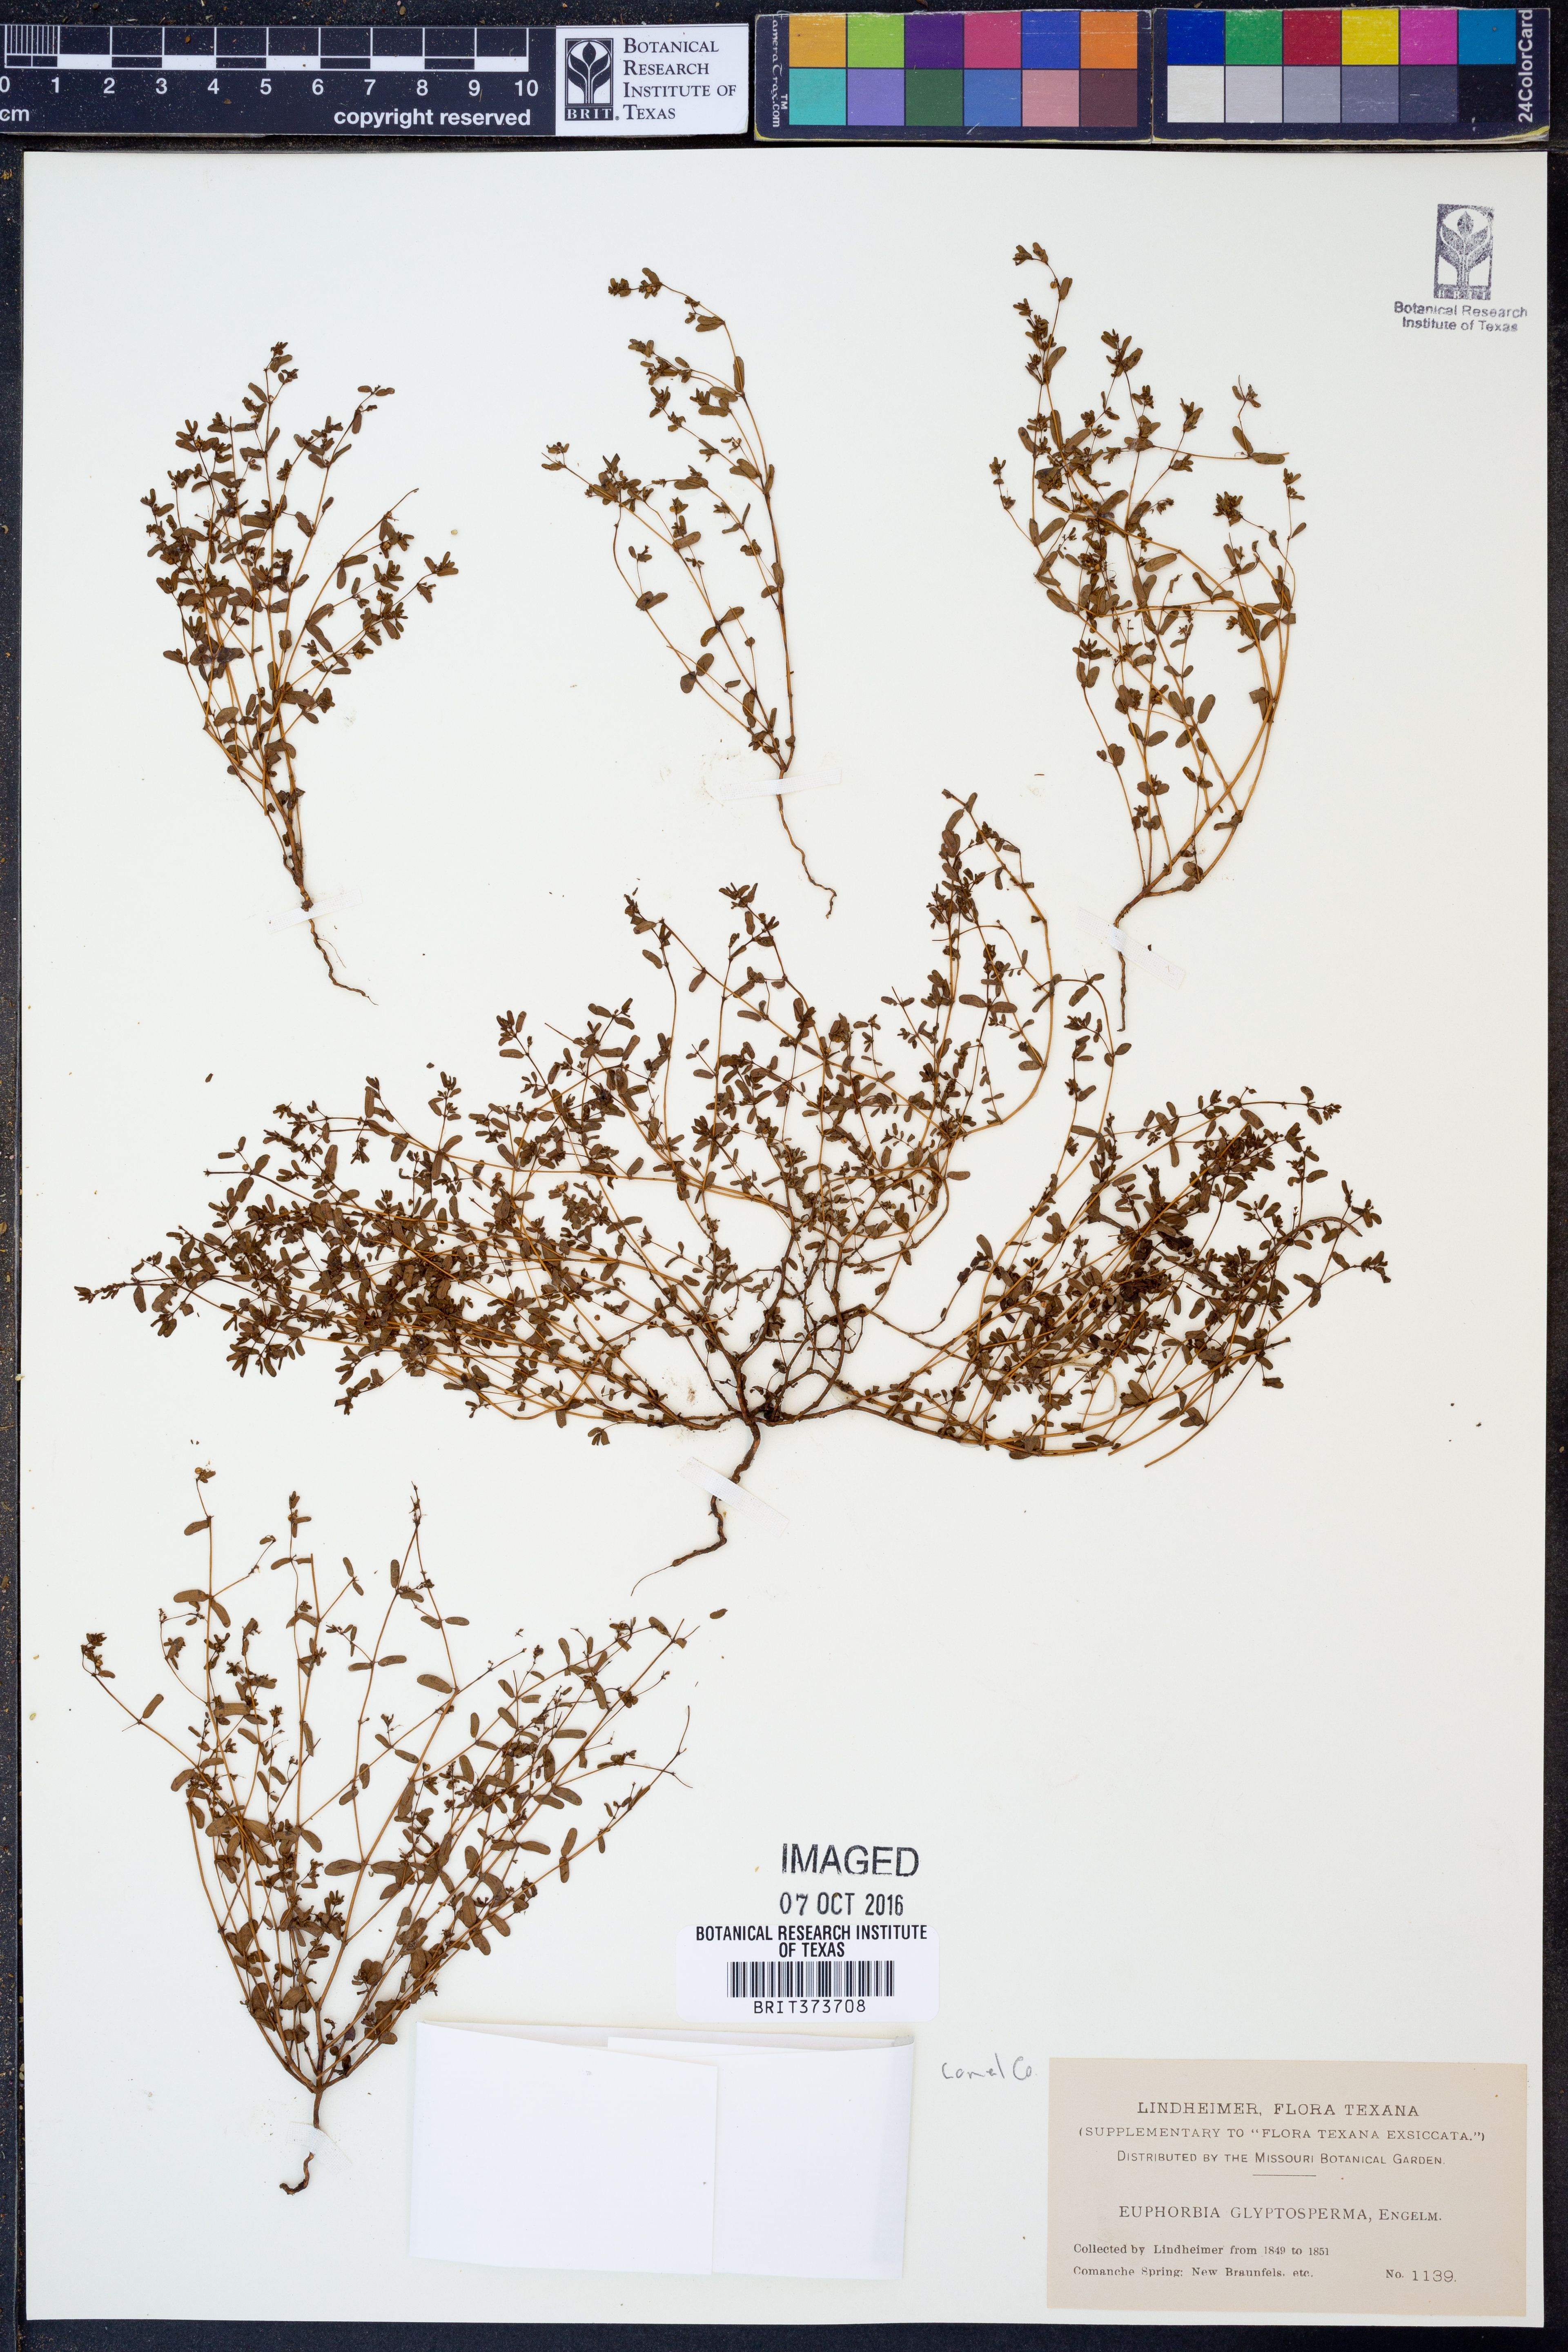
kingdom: Plantae
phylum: Tracheophyta
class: Magnoliopsida
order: Malpighiales
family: Euphorbiaceae
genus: Euphorbia
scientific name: Euphorbia glyptosperma
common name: Corrugate-seeded spurge
